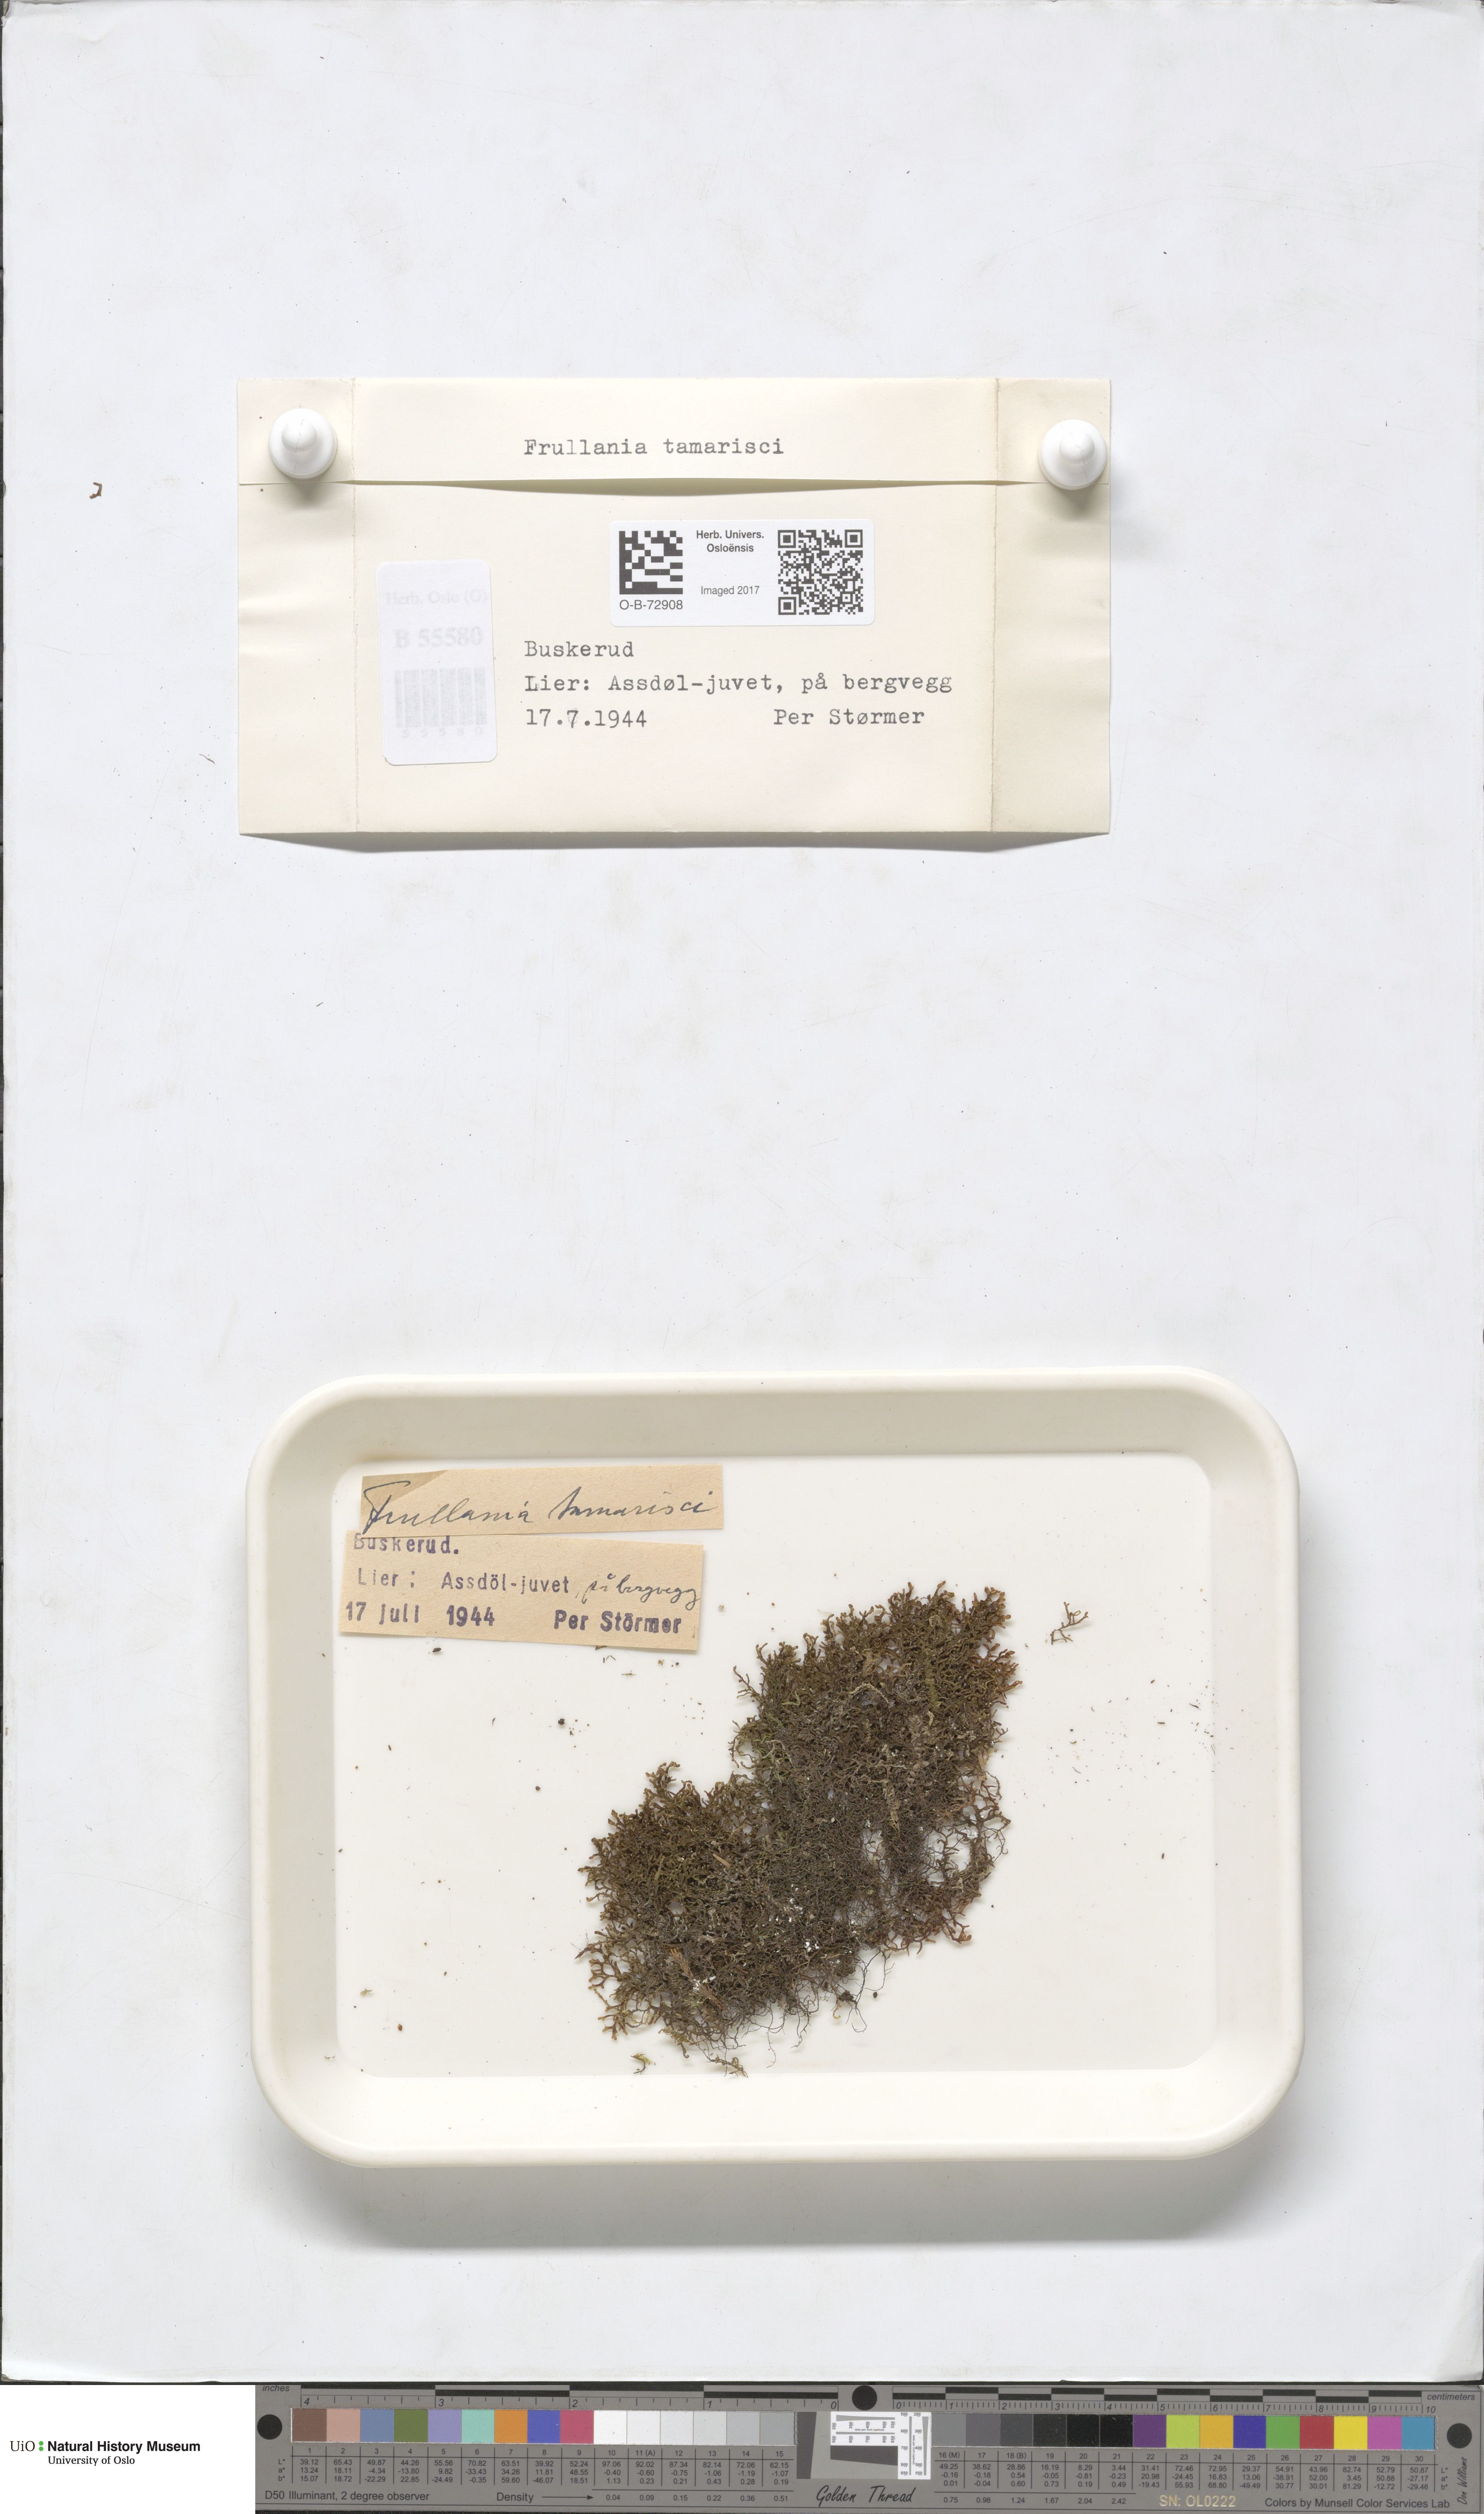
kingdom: Plantae
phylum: Marchantiophyta
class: Jungermanniopsida
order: Porellales
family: Frullaniaceae
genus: Frullania
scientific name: Frullania tamarisci
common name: Tamarisk scalewort
